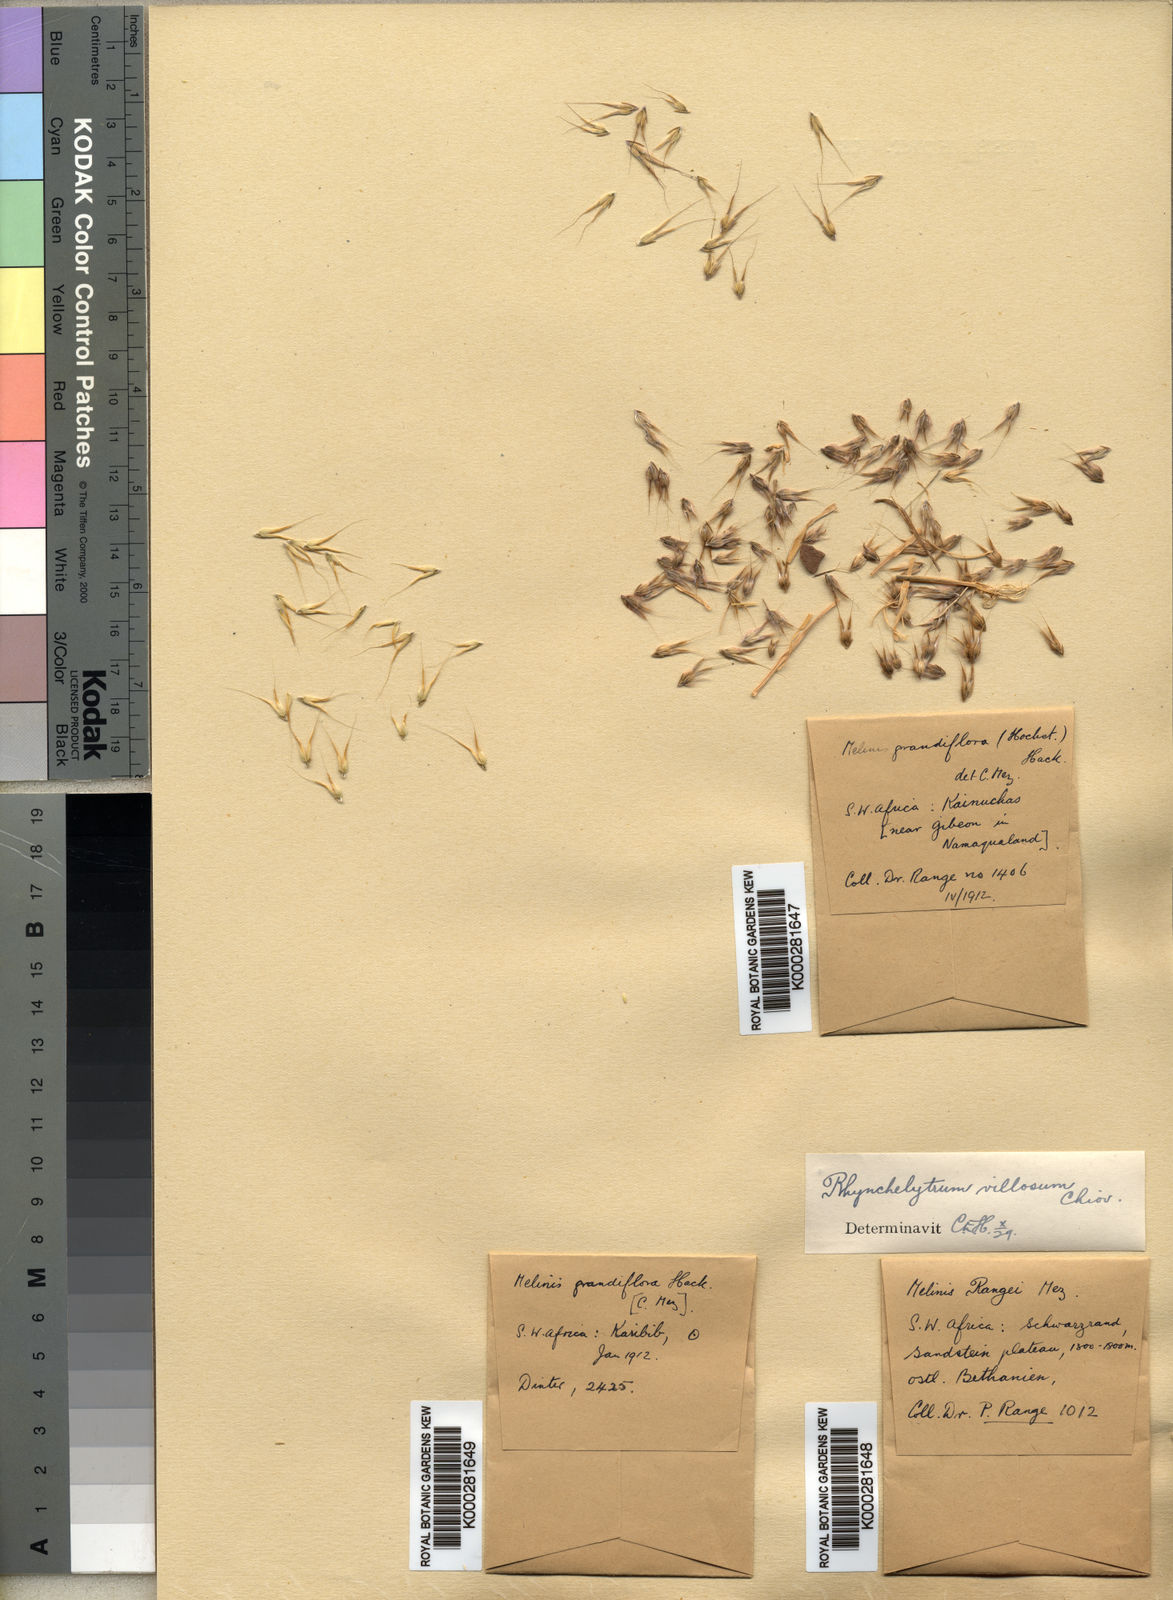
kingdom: Plantae
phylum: Tracheophyta
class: Liliopsida
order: Poales
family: Poaceae
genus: Melinis
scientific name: Melinis repens
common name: Rose natal grass
